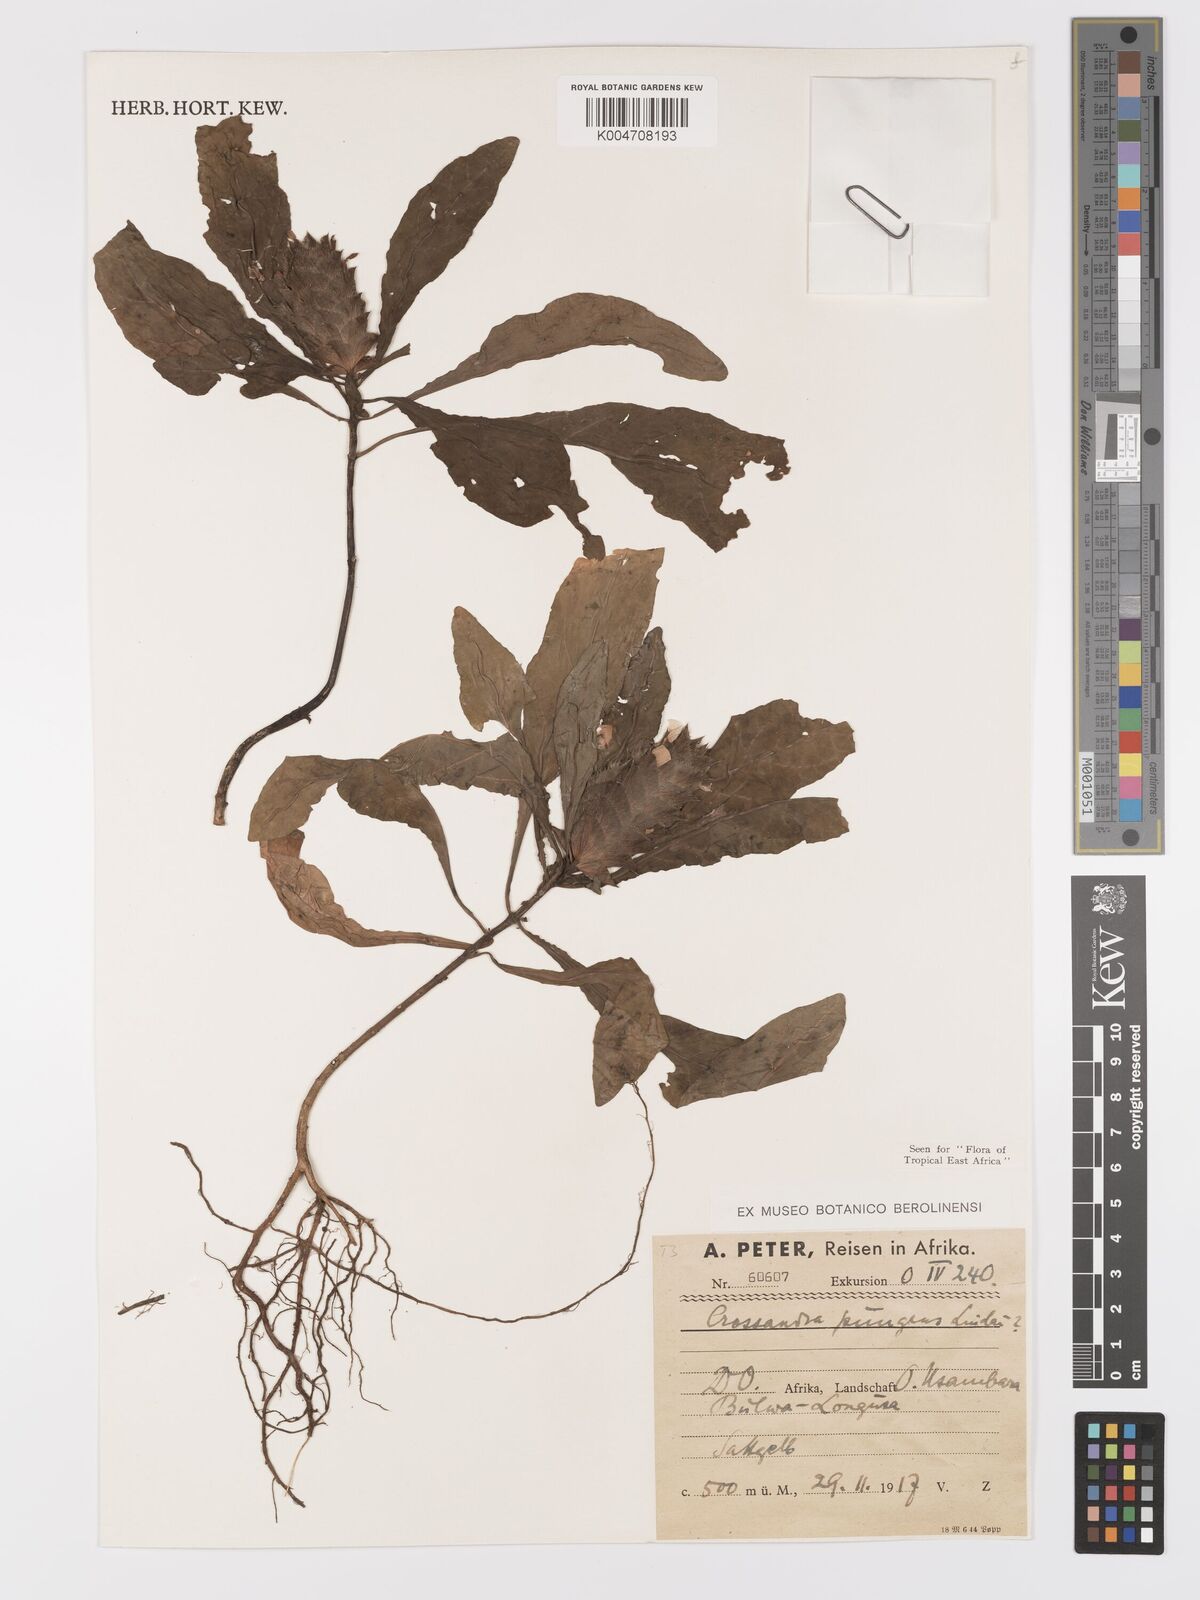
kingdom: Plantae
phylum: Tracheophyta
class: Magnoliopsida
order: Lamiales
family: Acanthaceae
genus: Crossandra
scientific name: Crossandra pungens
